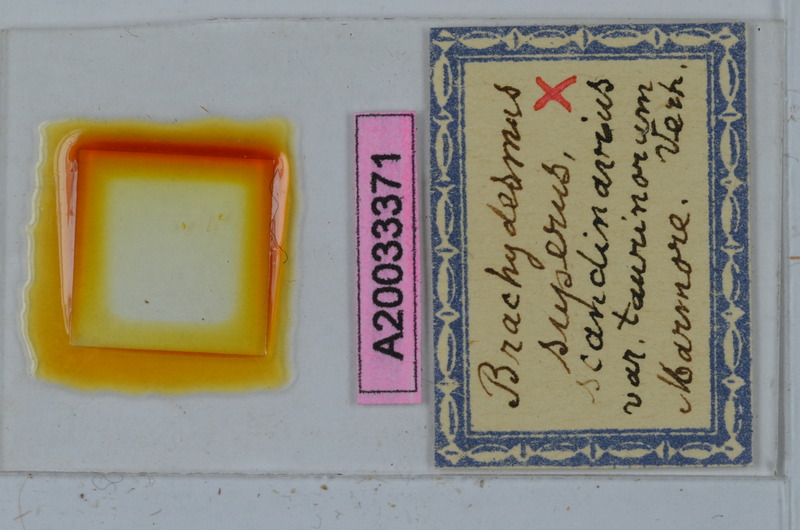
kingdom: Animalia
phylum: Arthropoda
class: Diplopoda
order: Polydesmida
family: Polydesmidae
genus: Brachydesmus
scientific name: Brachydesmus superus
